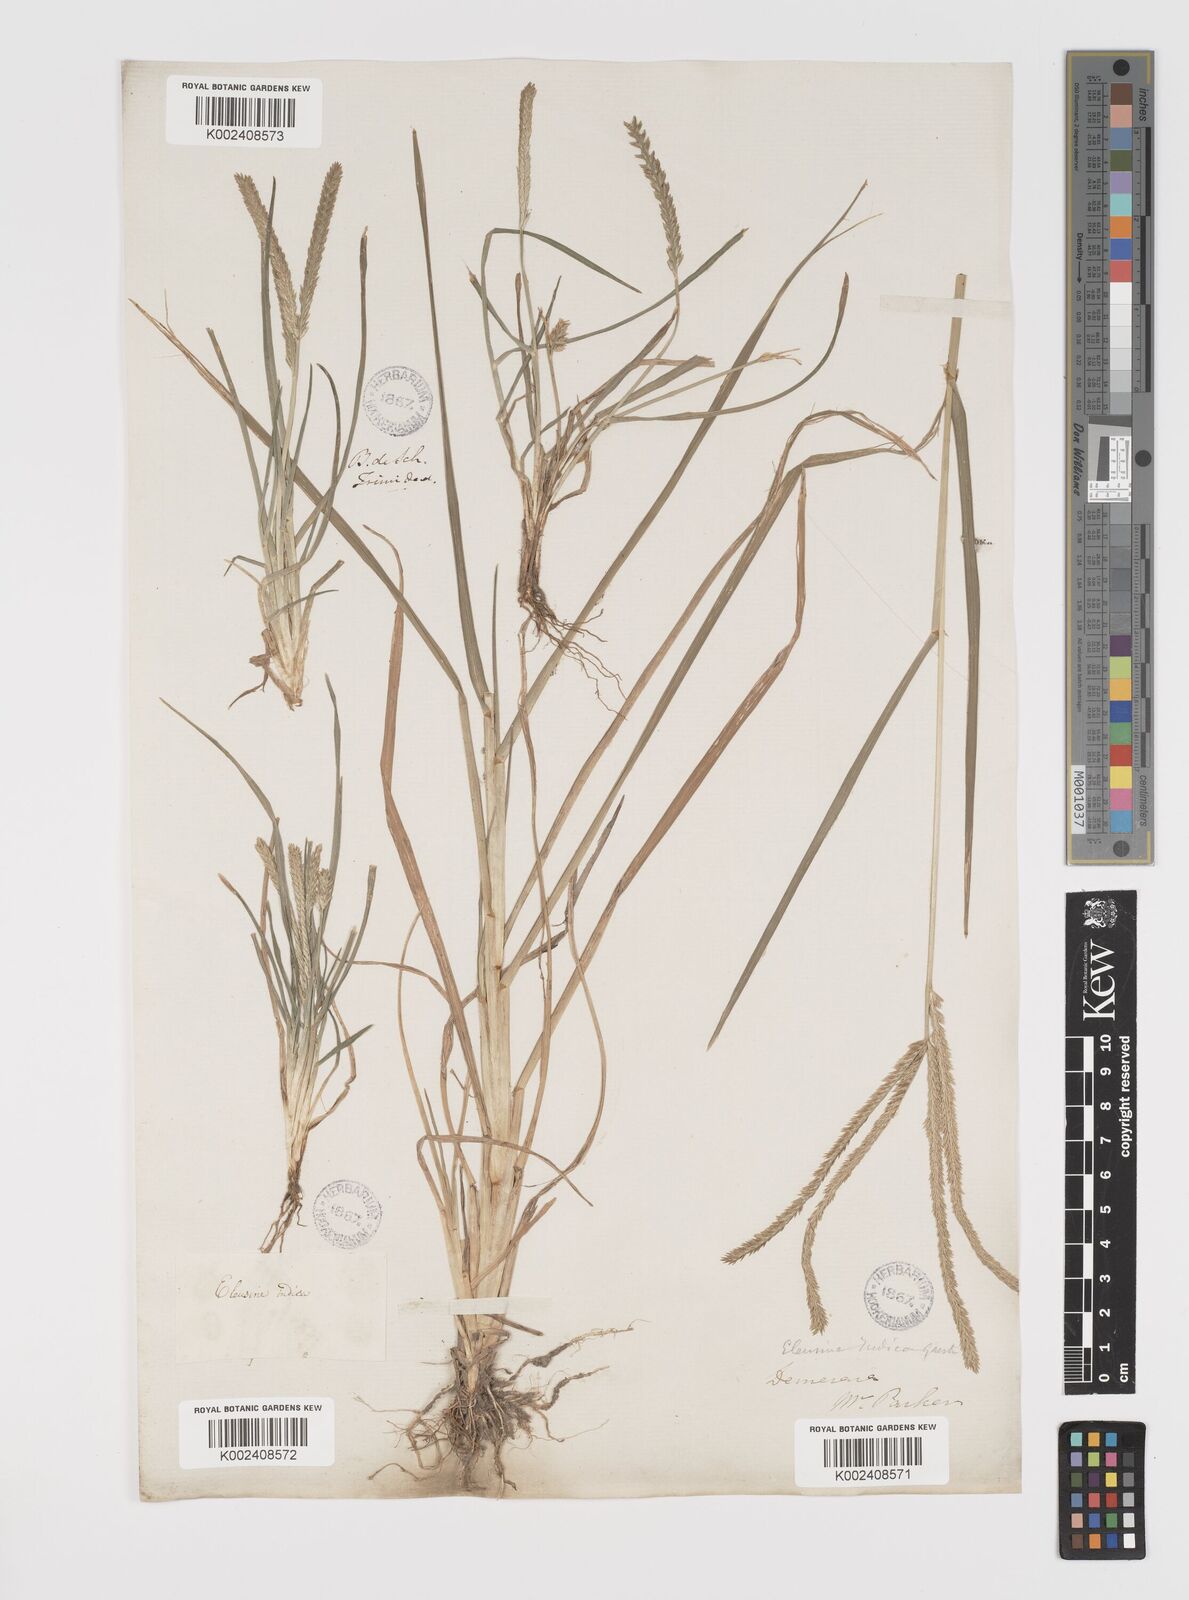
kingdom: Plantae
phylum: Tracheophyta
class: Liliopsida
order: Poales
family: Poaceae
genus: Eleusine
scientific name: Eleusine indica
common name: Yard-grass
